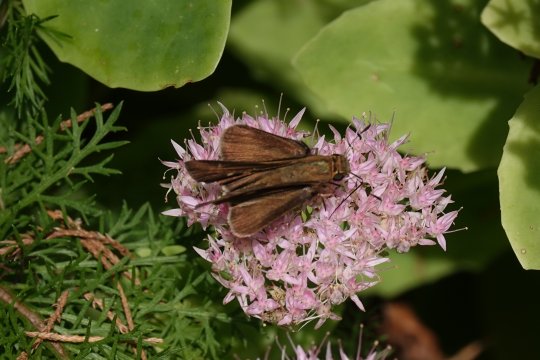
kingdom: Animalia
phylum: Arthropoda
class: Insecta
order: Lepidoptera
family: Hesperiidae
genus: Panoquina
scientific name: Panoquina ocola
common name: Ocola Skipper
